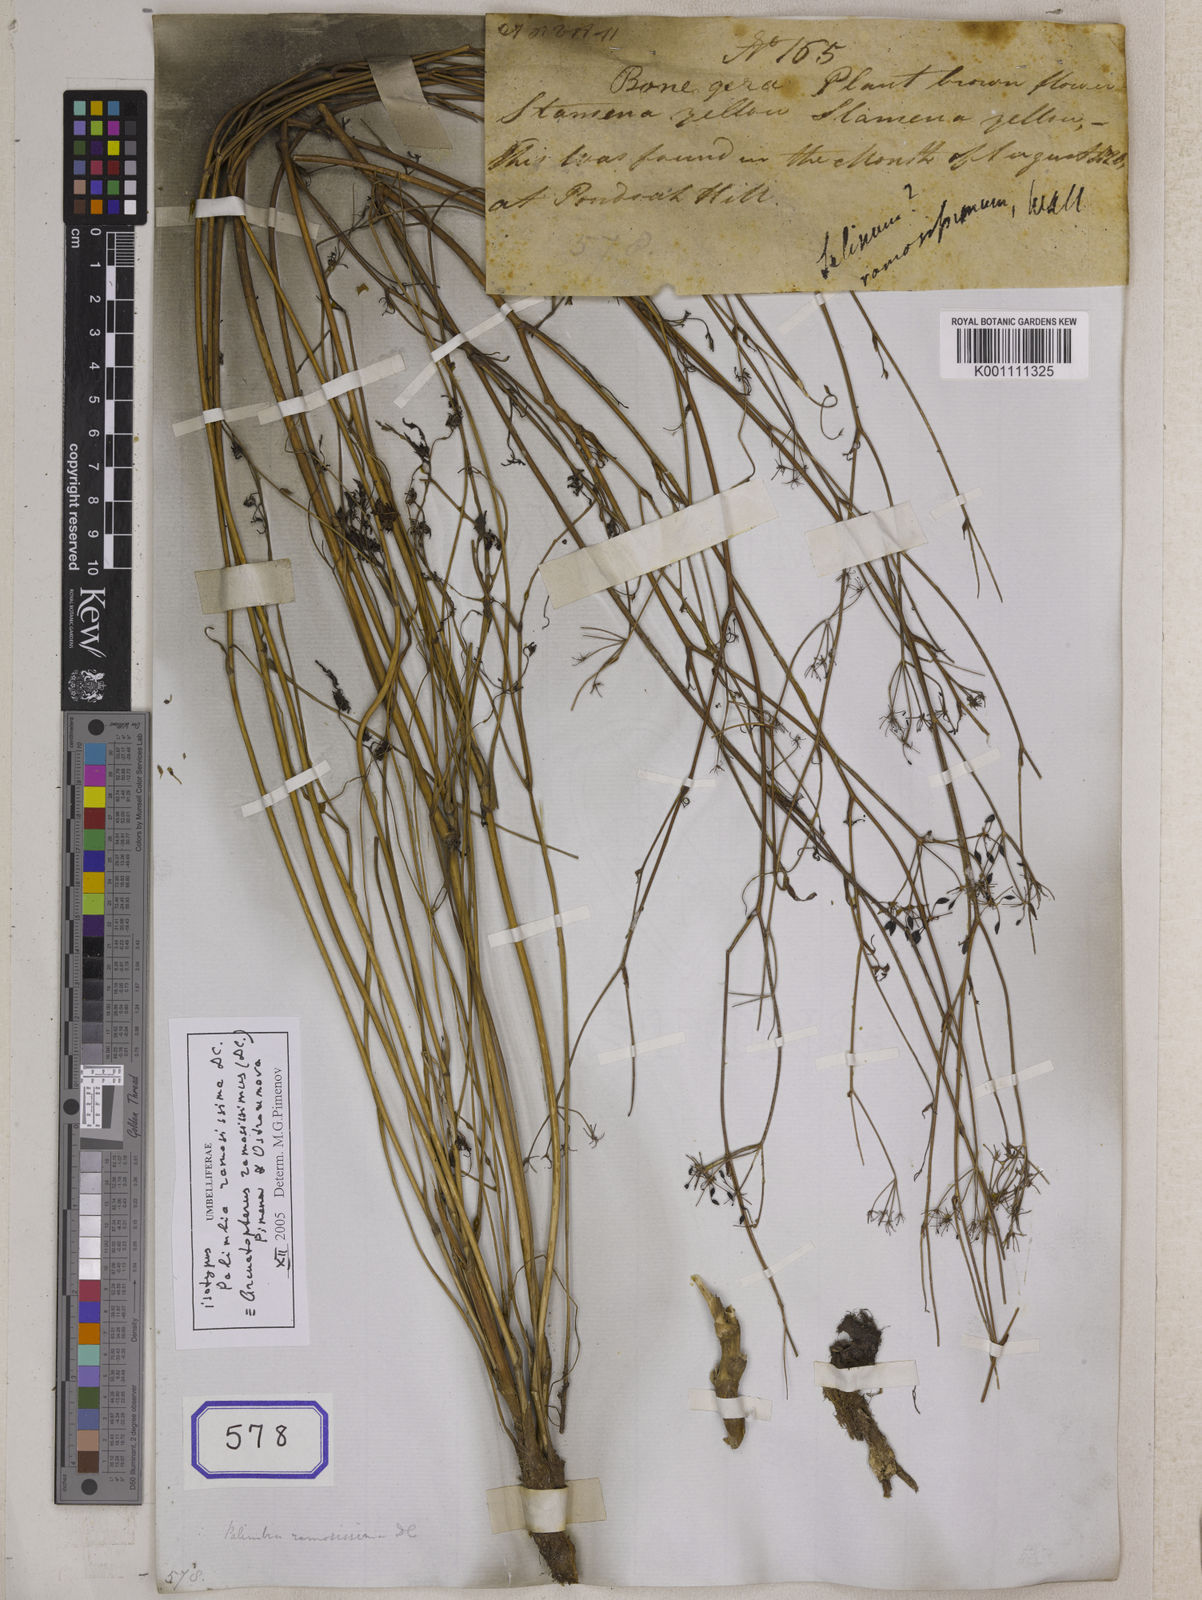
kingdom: Plantae
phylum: Tracheophyta
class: Magnoliopsida
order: Apiales
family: Apiaceae
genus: Arcuatopterus
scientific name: Arcuatopterus ramosissimus
